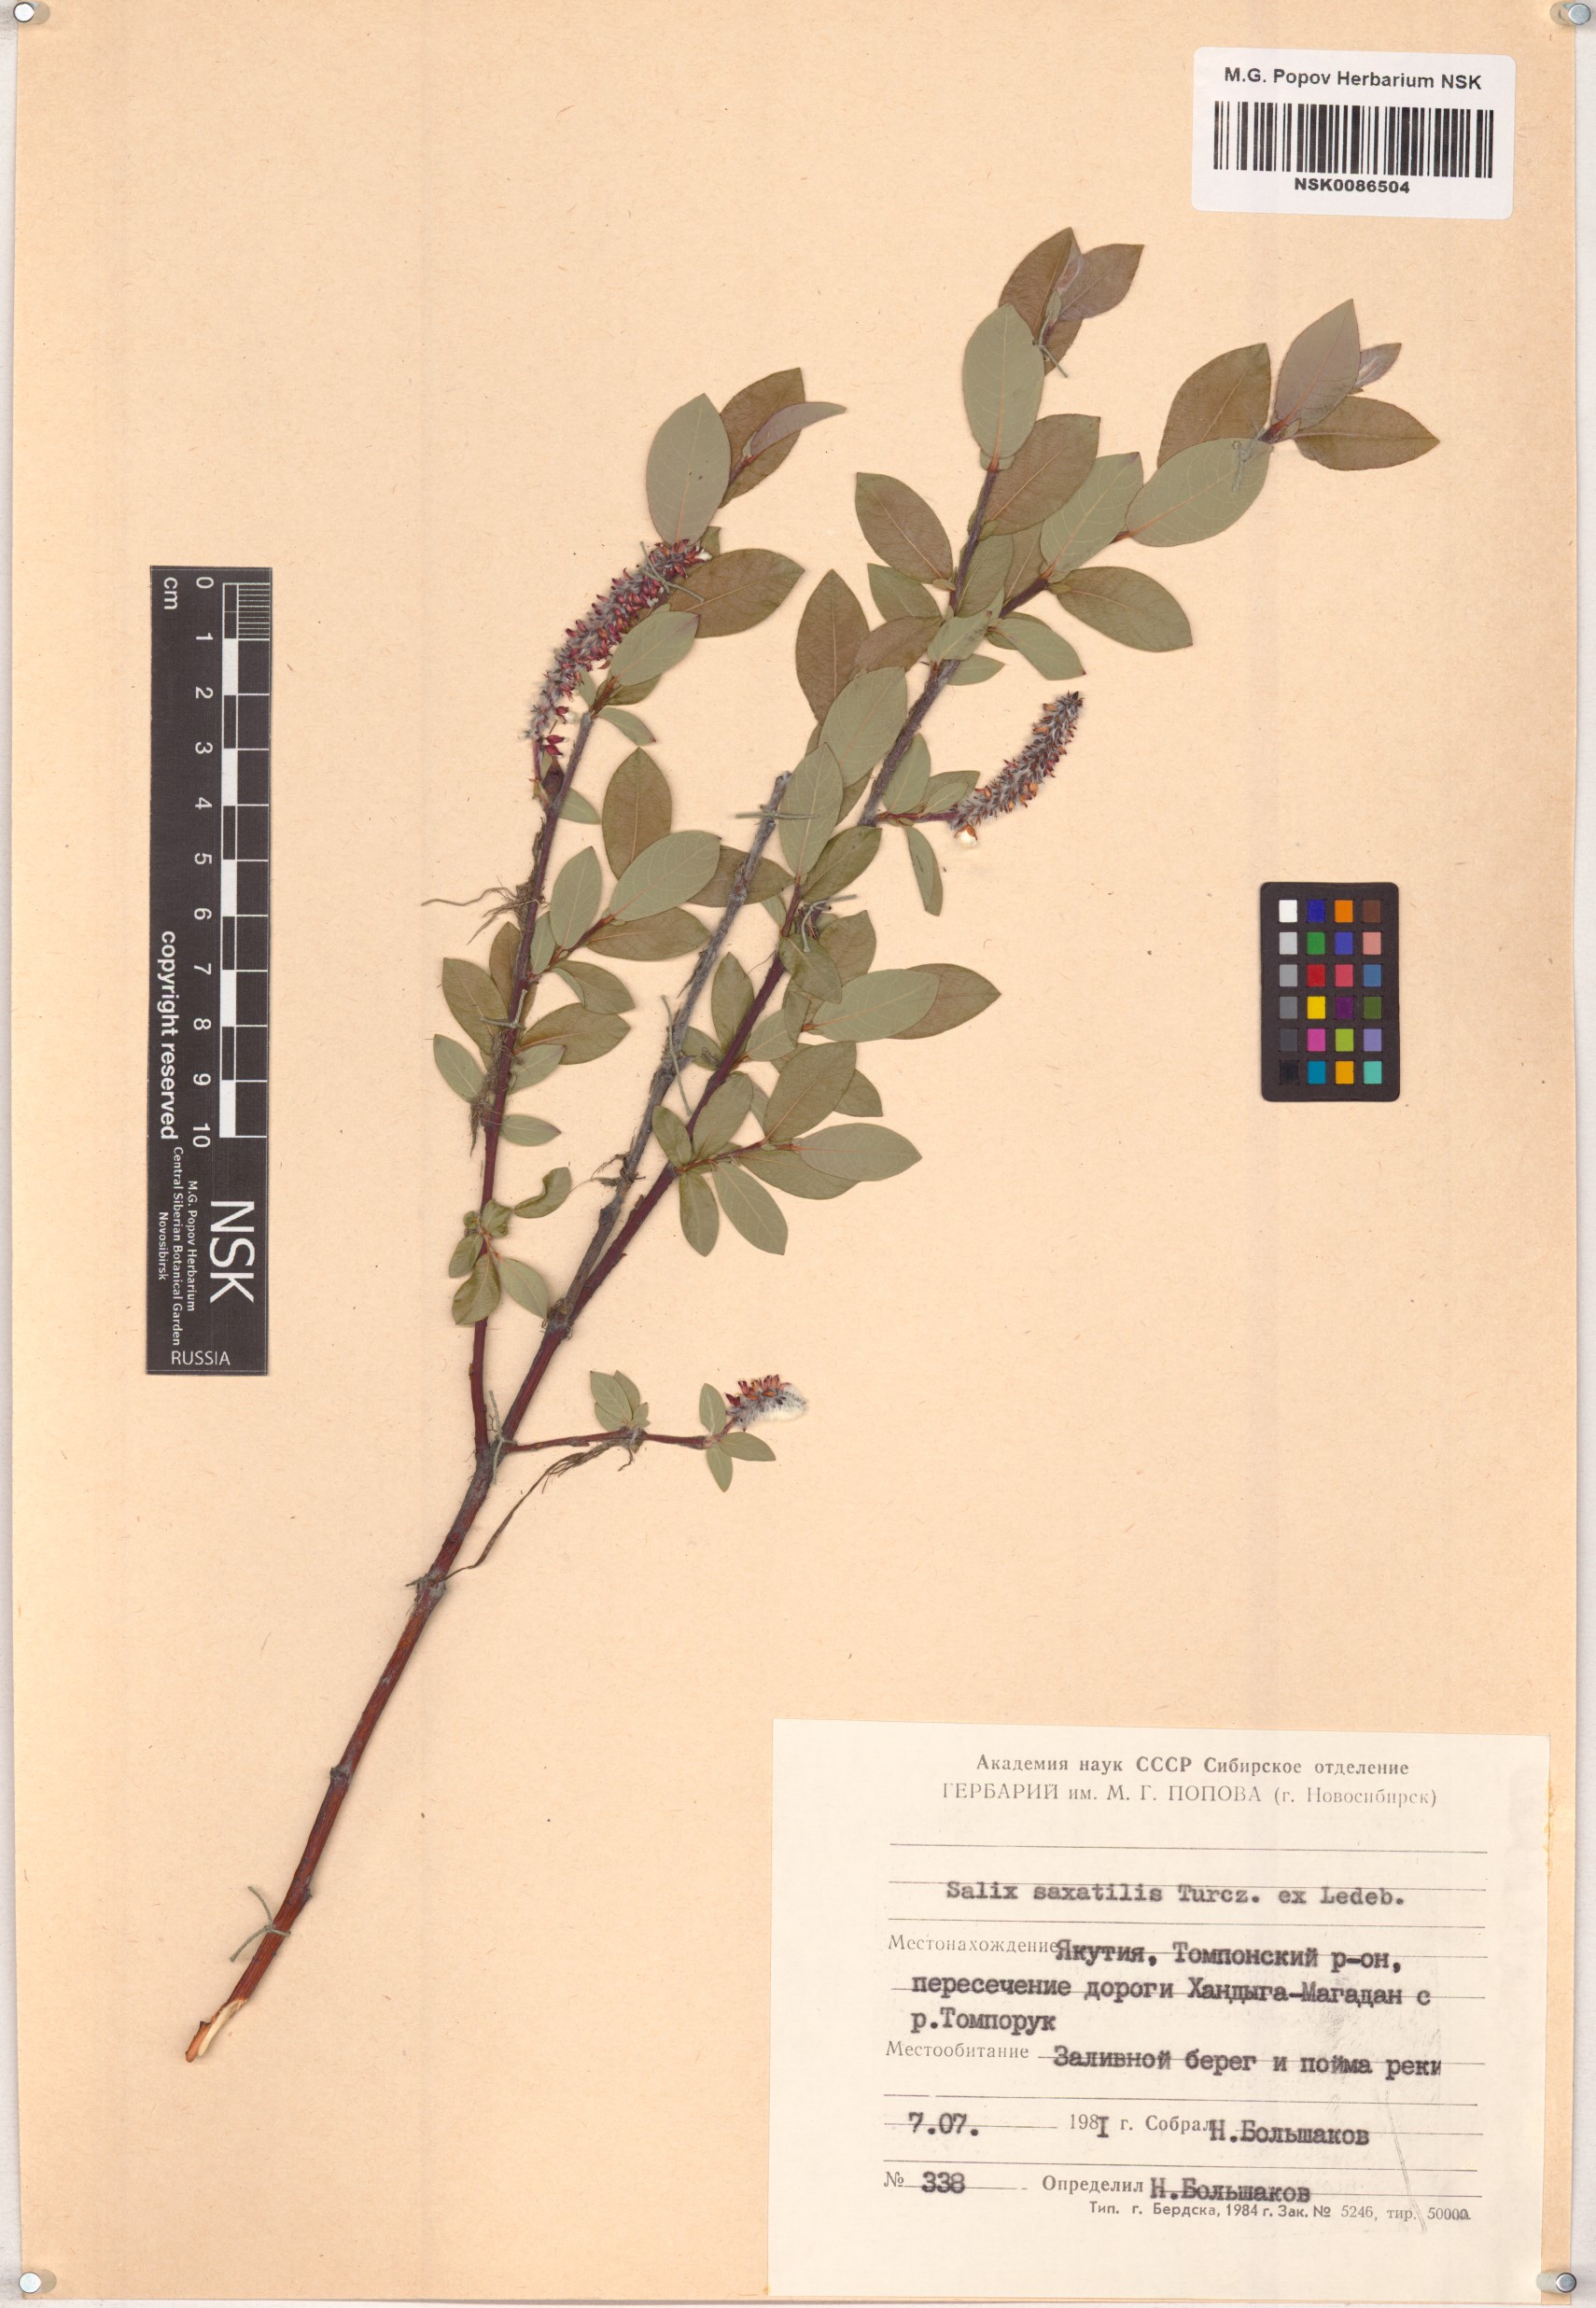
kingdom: Plantae
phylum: Tracheophyta
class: Magnoliopsida
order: Malpighiales
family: Salicaceae
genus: Salix
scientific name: Salix saxatilis
